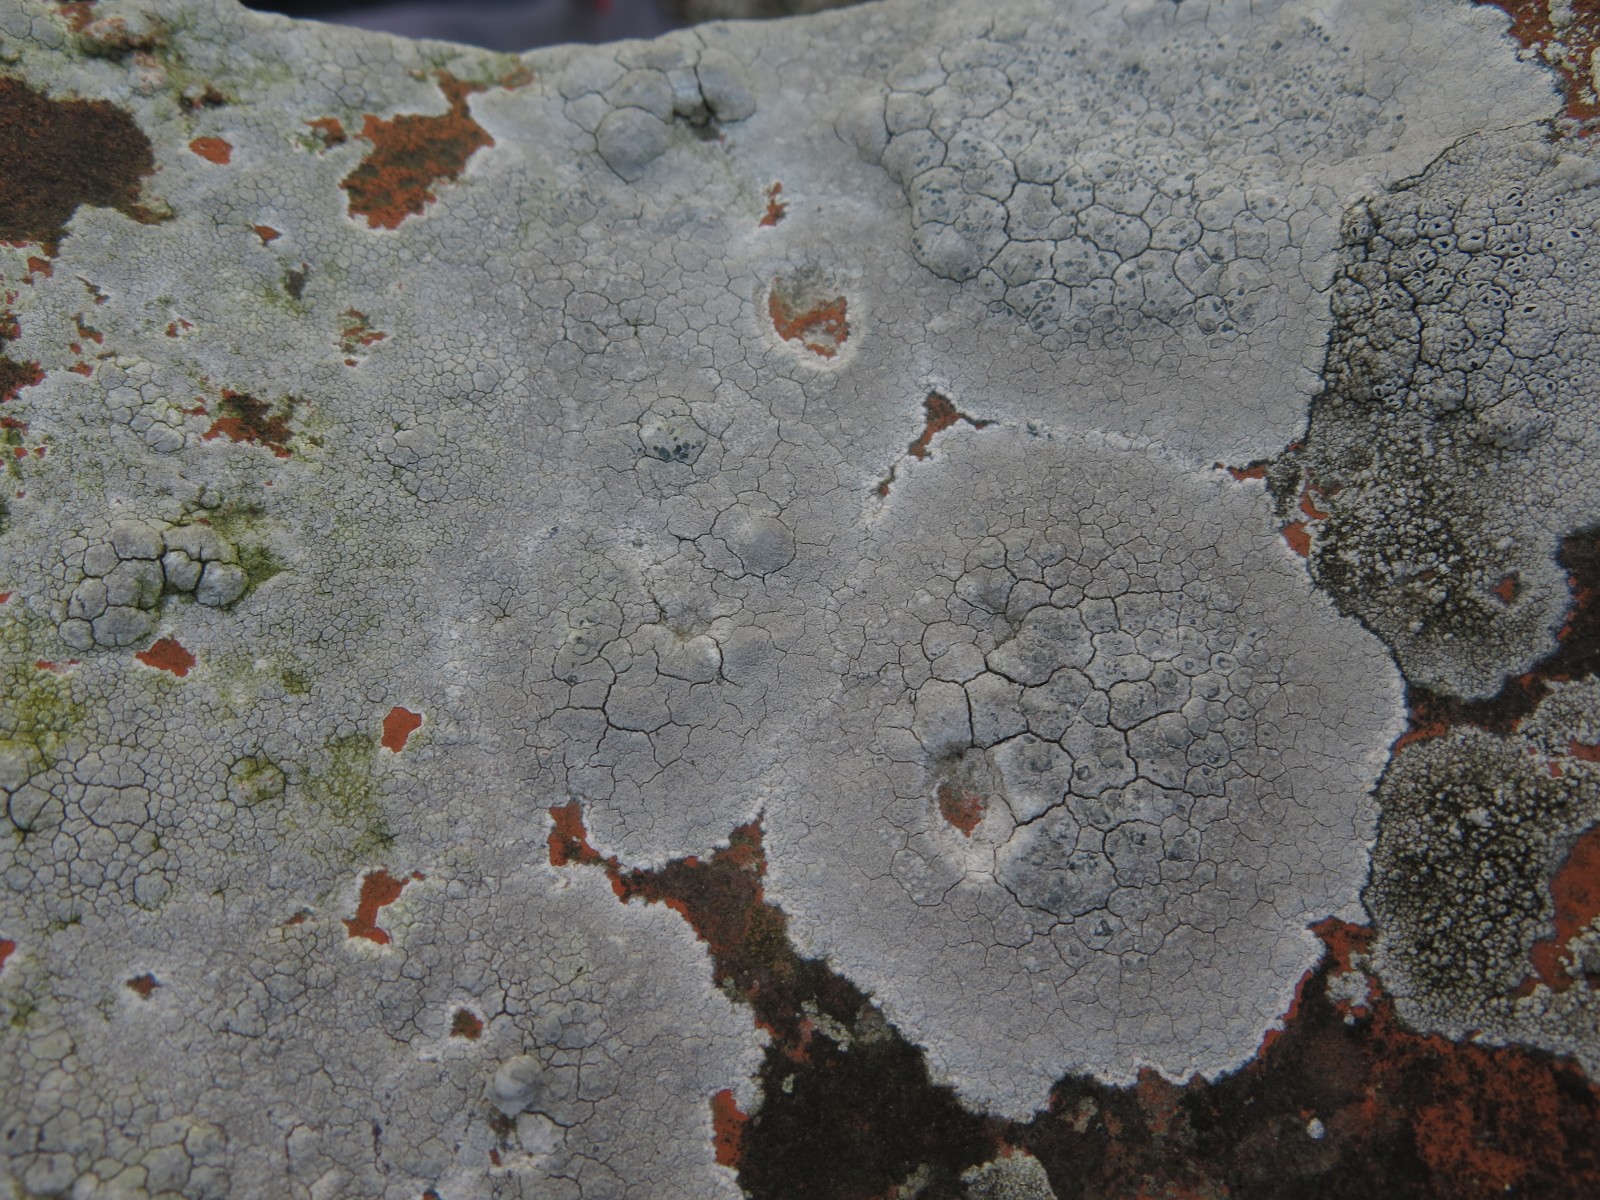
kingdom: Fungi
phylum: Ascomycota
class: Lecanoromycetes
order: Lecanorales
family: Lecanoraceae
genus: Glaucomaria
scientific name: Glaucomaria rupicola
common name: stengærde-kantskivelav
